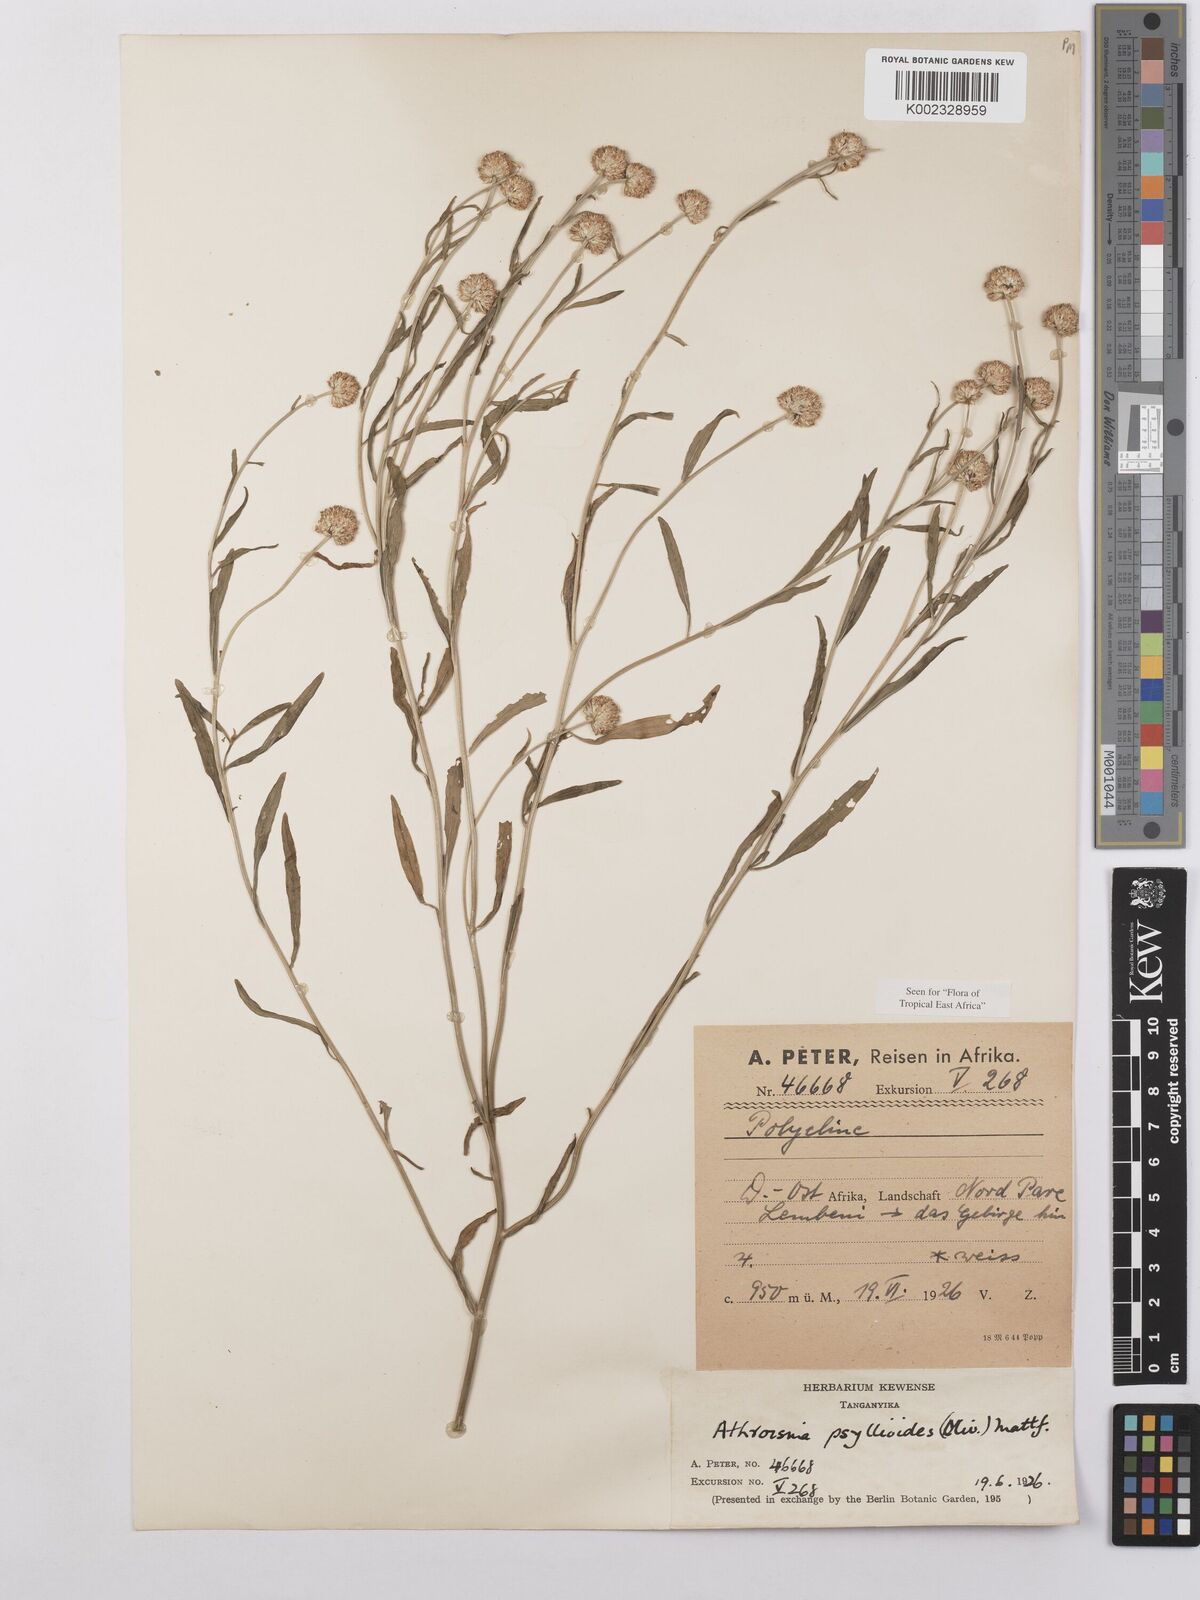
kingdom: Plantae
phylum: Tracheophyta
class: Magnoliopsida
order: Asterales
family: Asteraceae
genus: Athroisma
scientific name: Athroisma gracile
